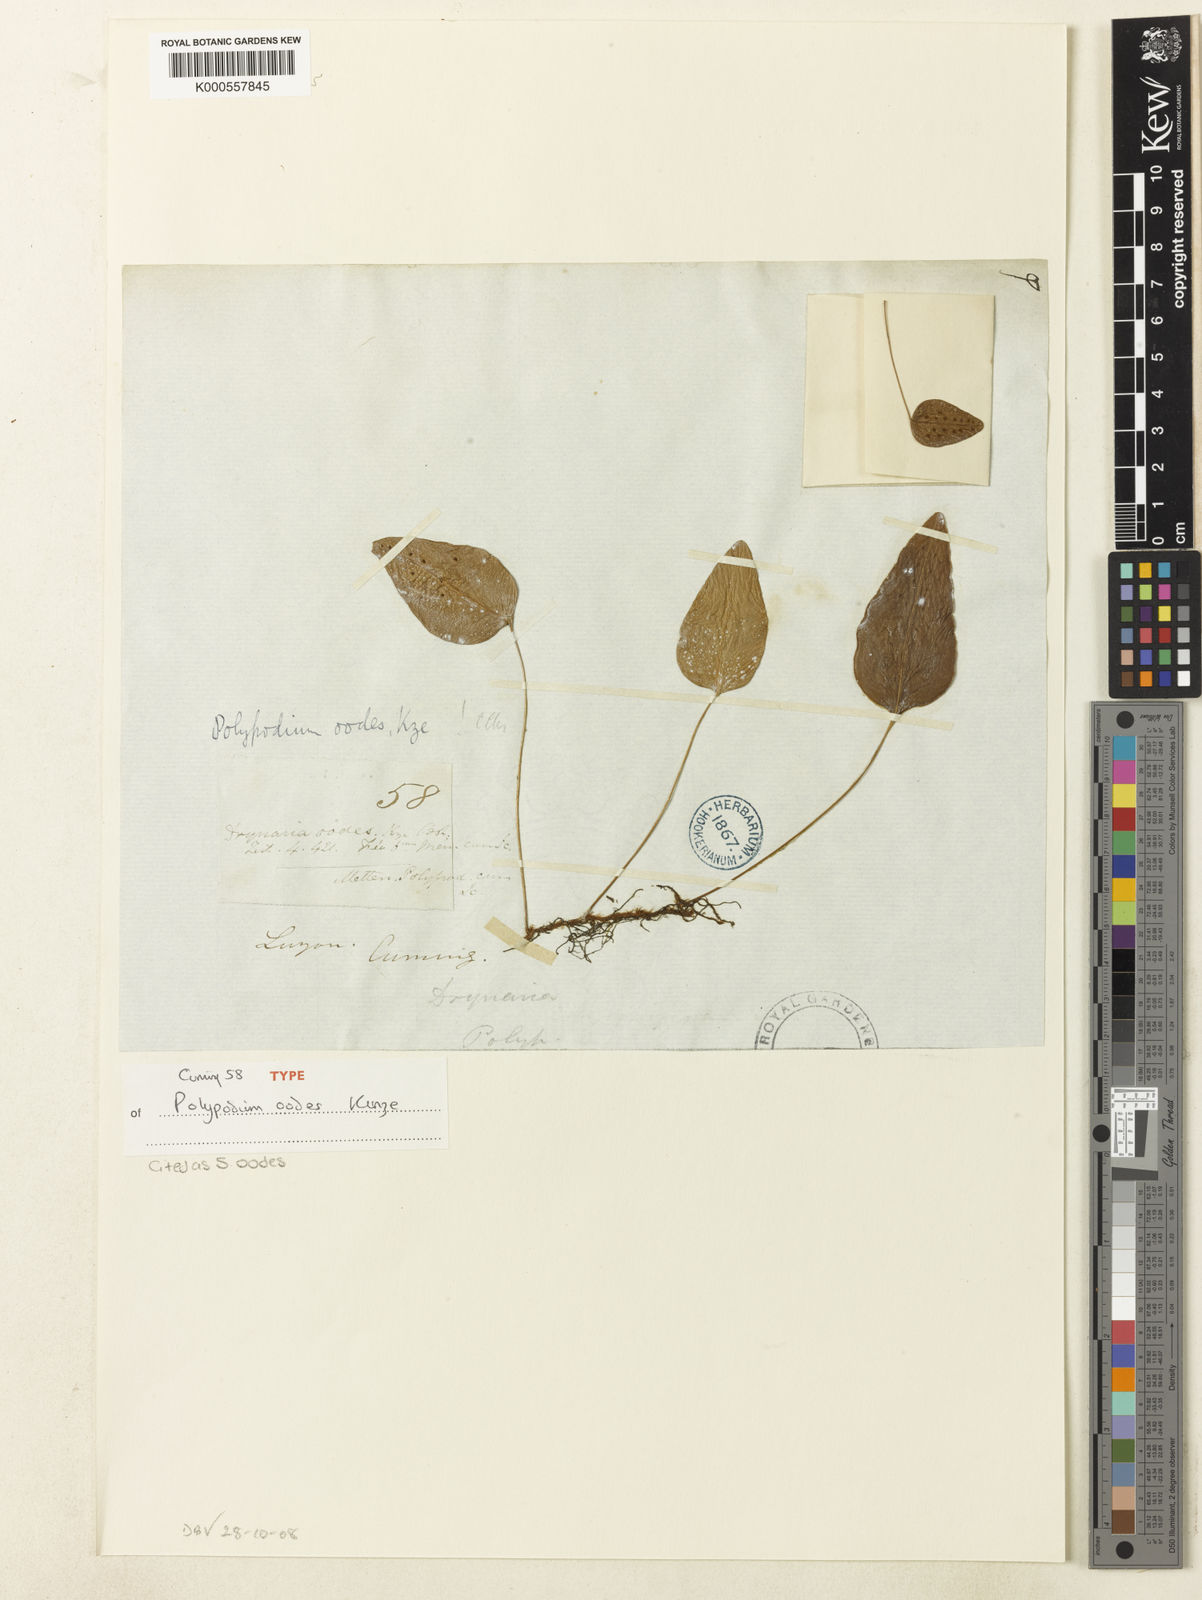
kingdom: Plantae
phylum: Tracheophyta
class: Polypodiopsida
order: Polypodiales
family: Polypodiaceae
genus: Selliguea
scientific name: Selliguea oodes
